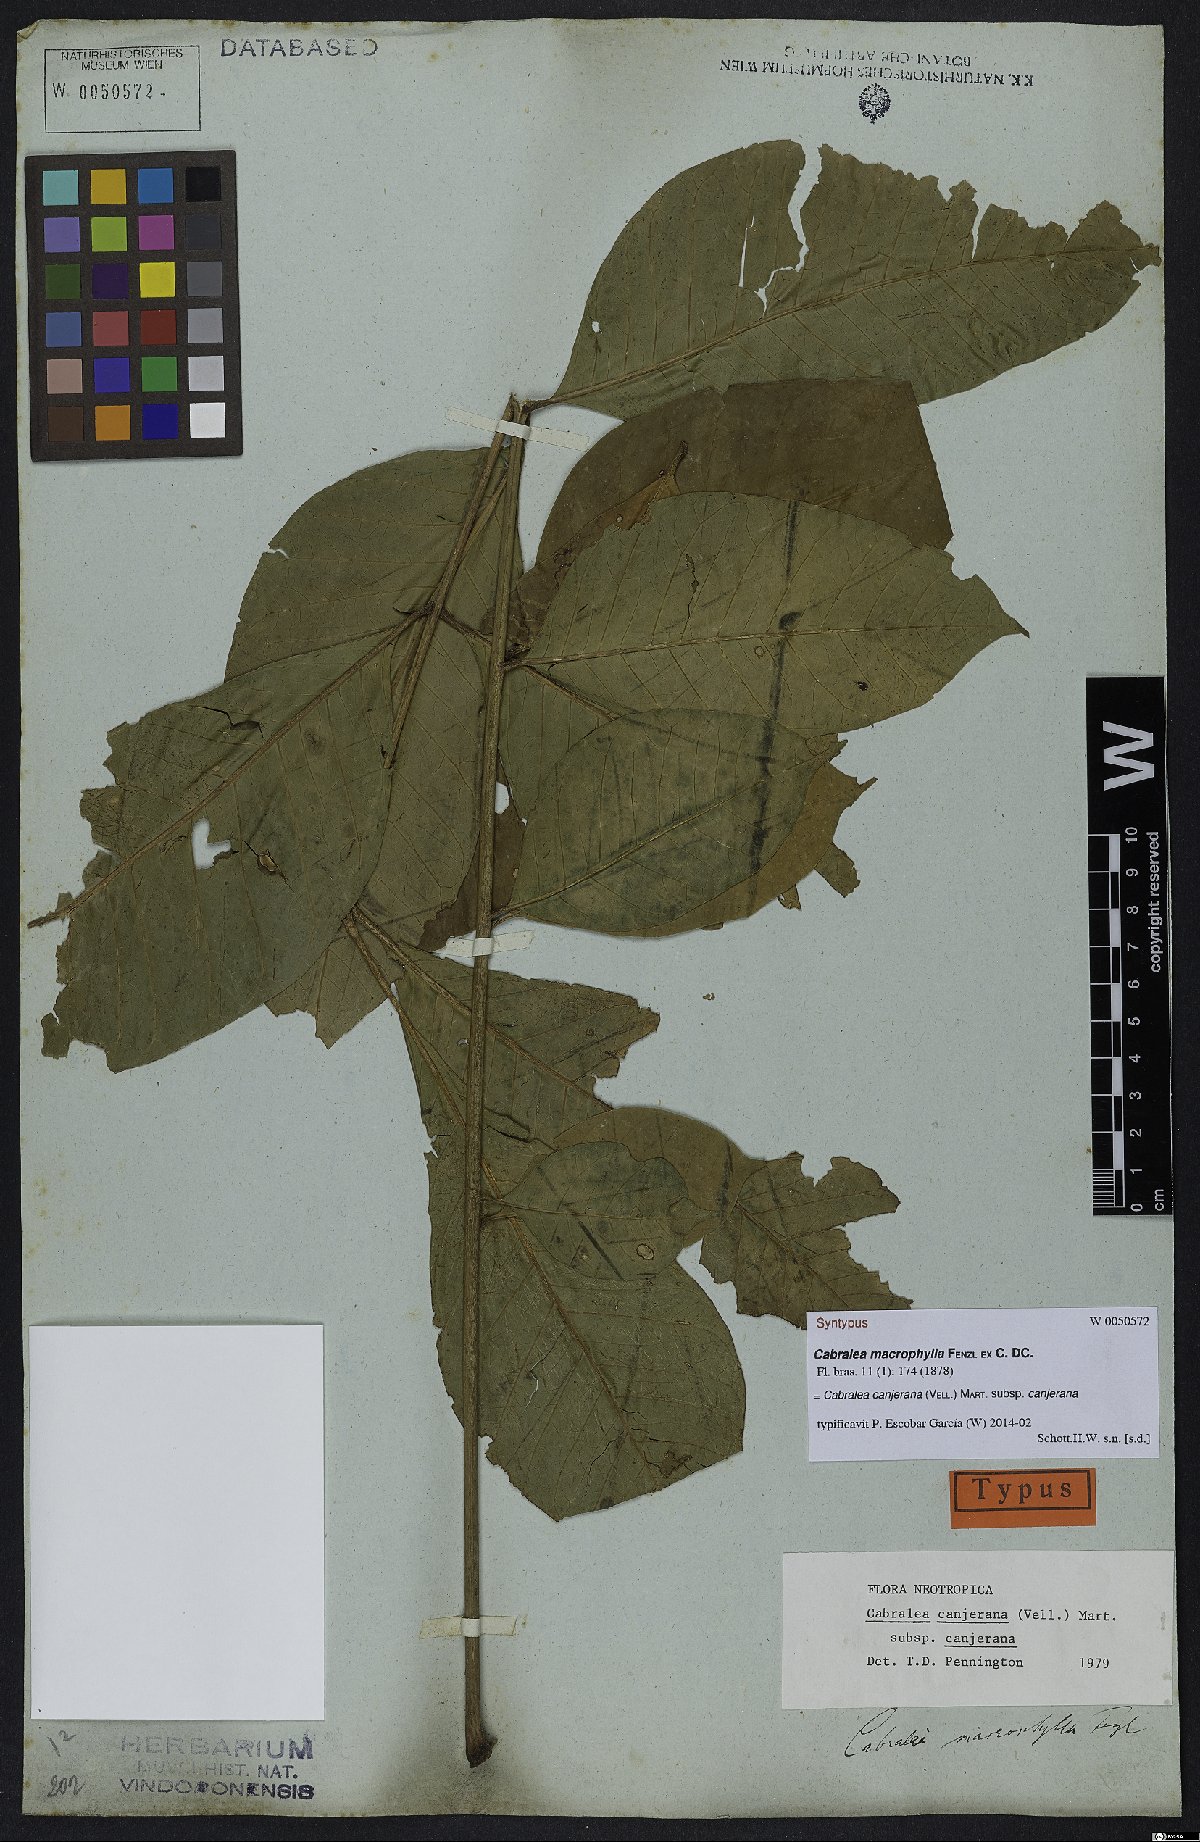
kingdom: Plantae
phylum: Tracheophyta
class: Magnoliopsida
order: Sapindales
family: Meliaceae
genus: Cabralea
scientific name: Cabralea canjerana
